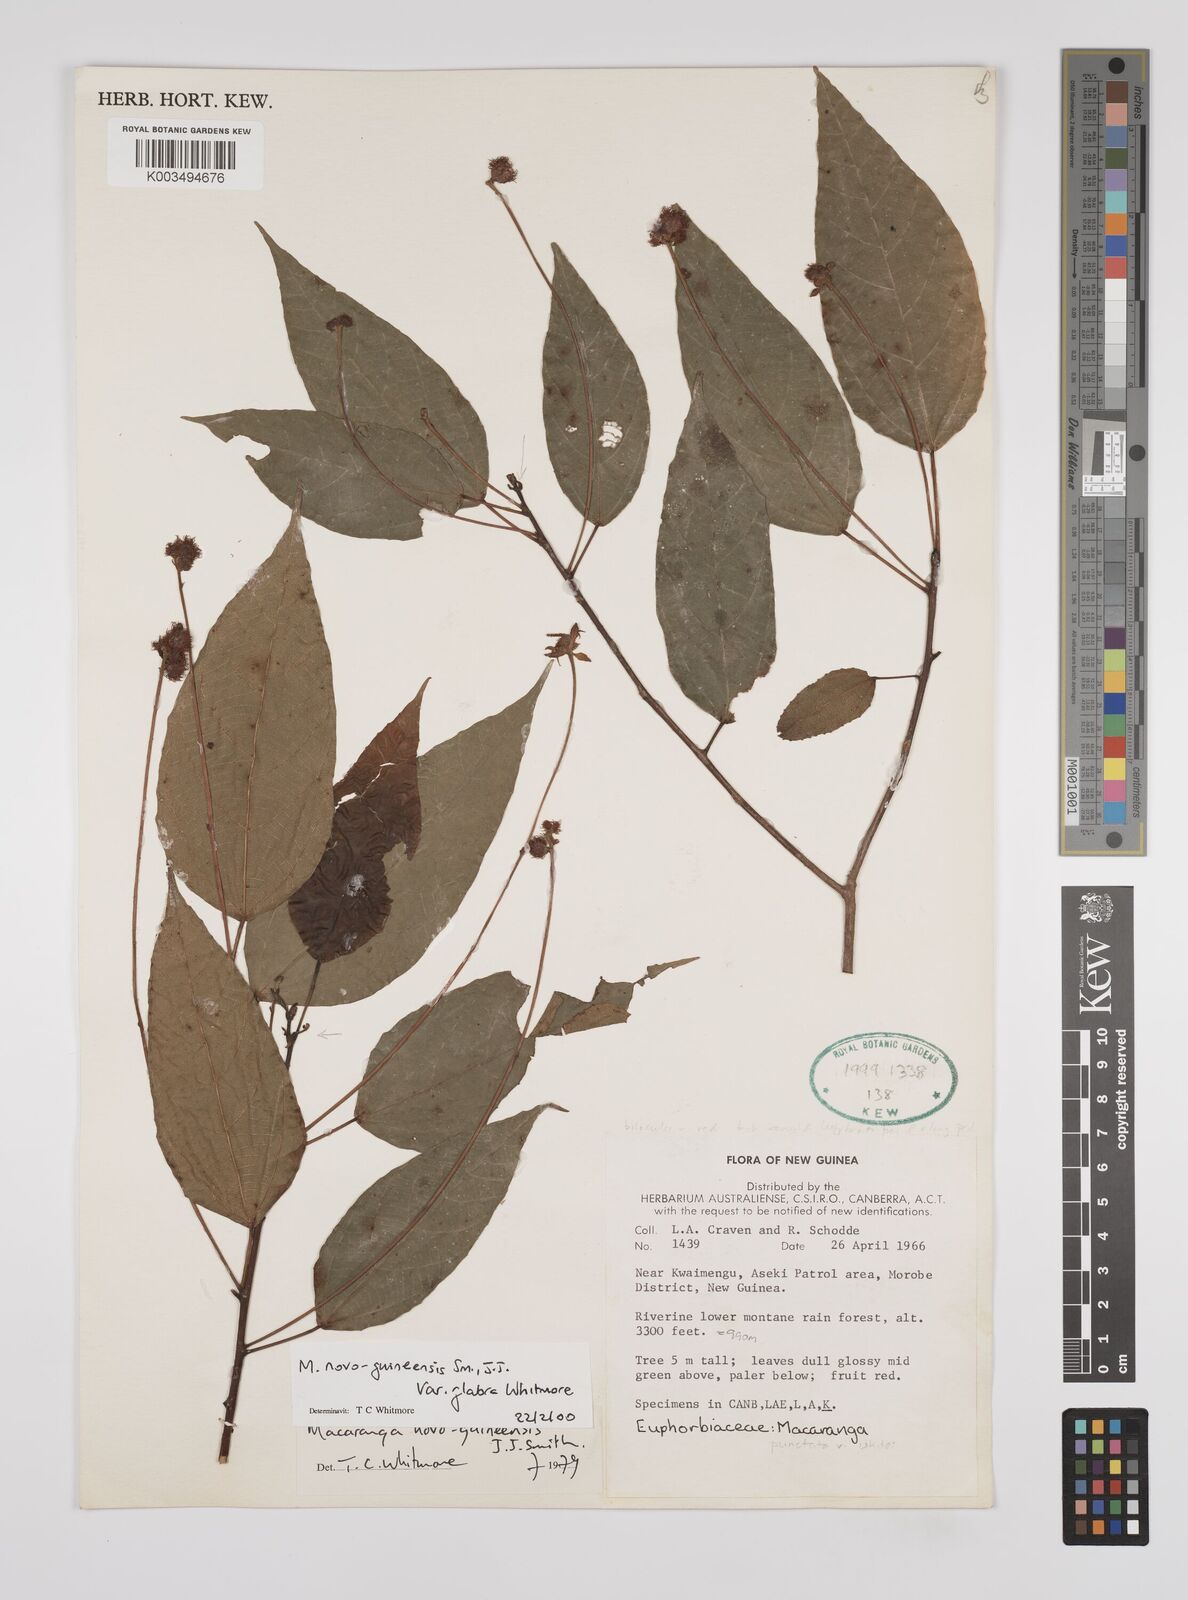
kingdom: Plantae
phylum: Tracheophyta
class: Magnoliopsida
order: Malpighiales
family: Euphorbiaceae
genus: Macaranga
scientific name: Macaranga novoguineensis
